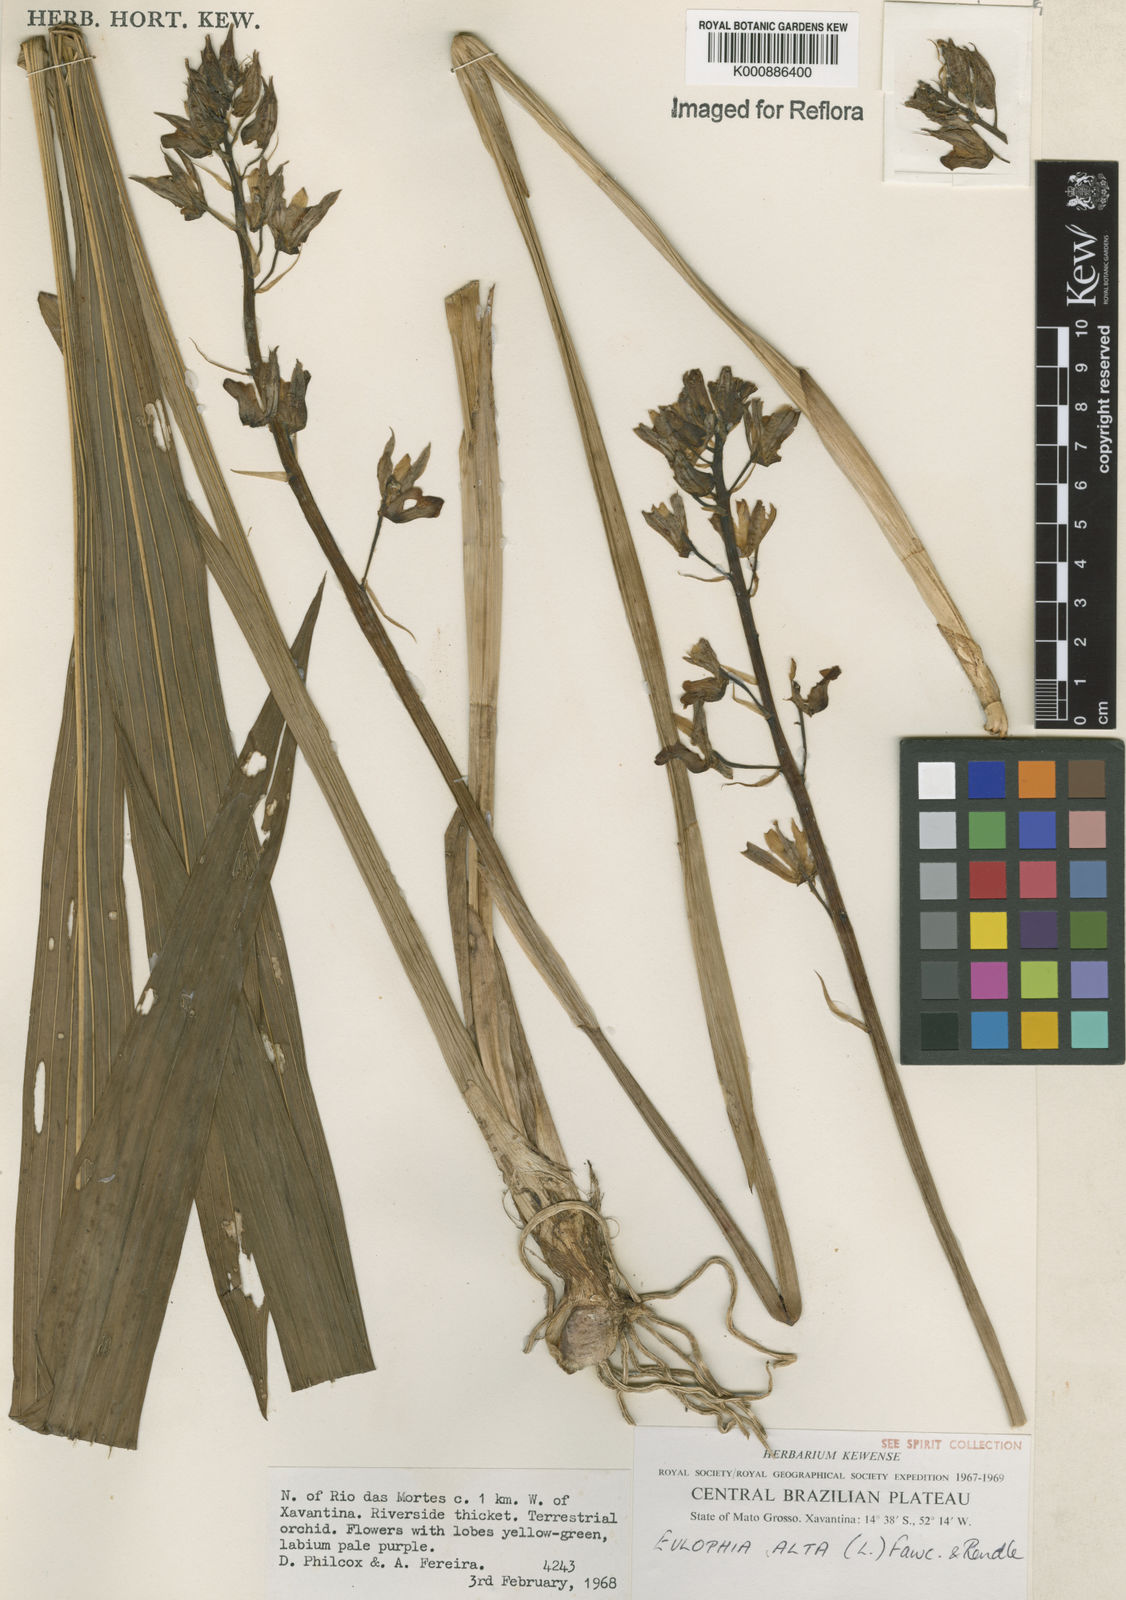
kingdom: Plantae
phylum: Tracheophyta
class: Liliopsida
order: Asparagales
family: Orchidaceae
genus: Eulophia
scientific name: Eulophia alta
